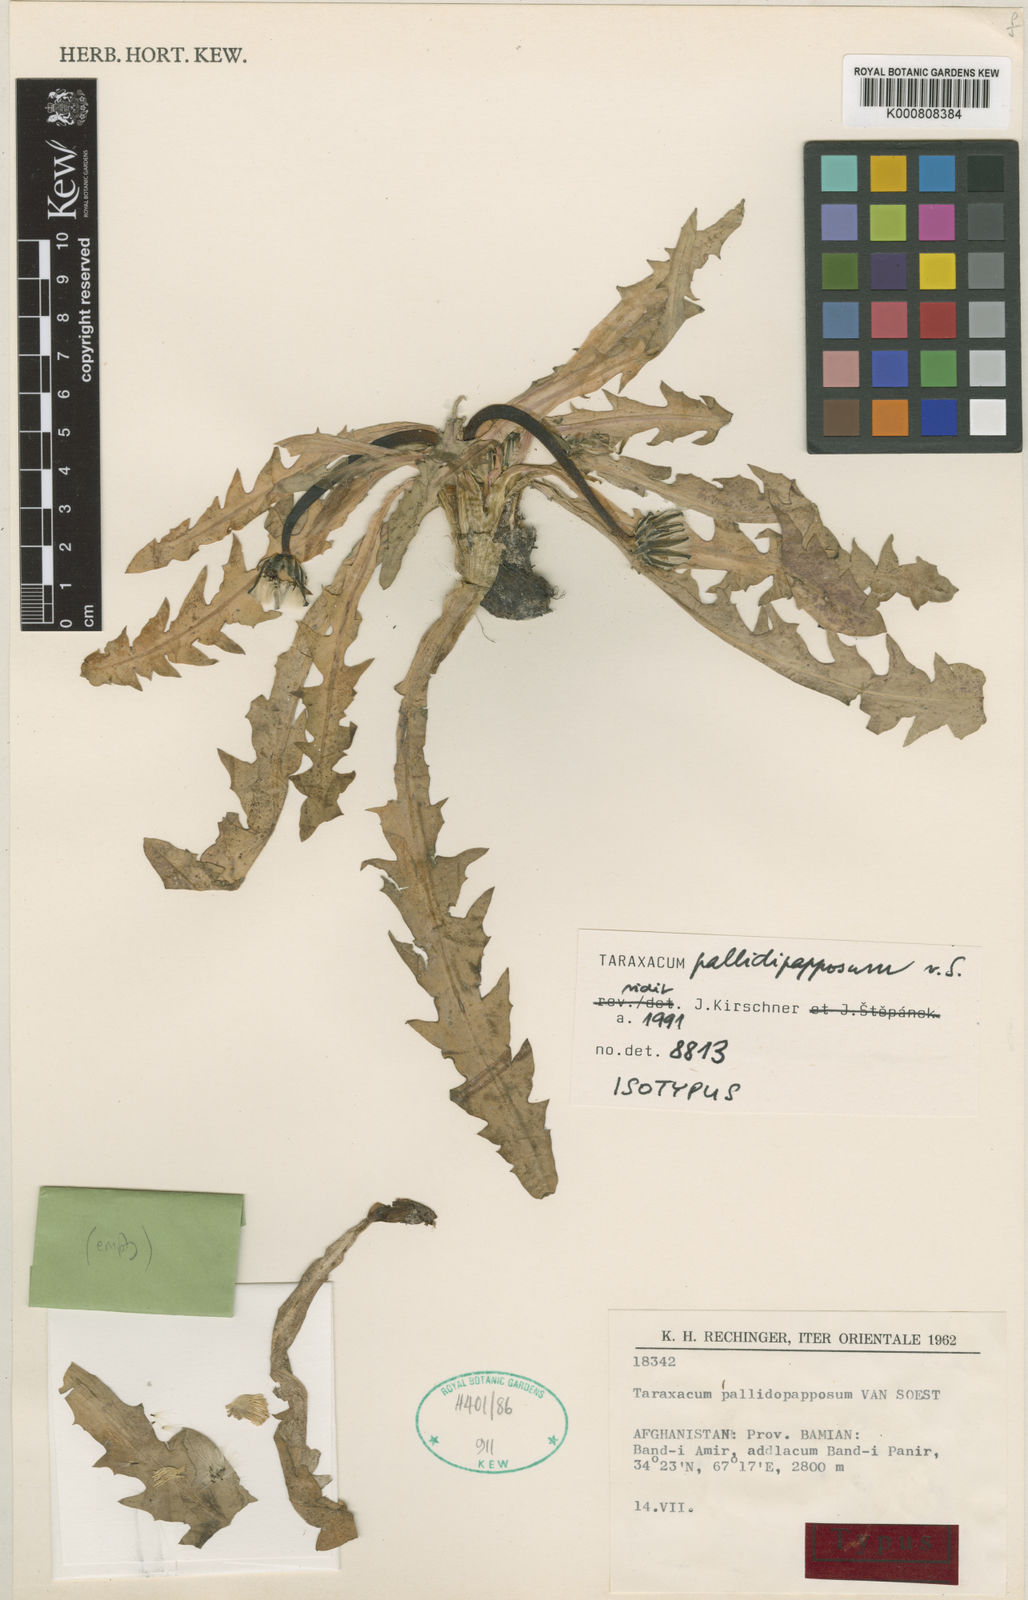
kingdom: Plantae
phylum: Tracheophyta
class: Magnoliopsida
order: Asterales
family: Asteraceae
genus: Taraxacum
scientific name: Taraxacum pallidipapposum
